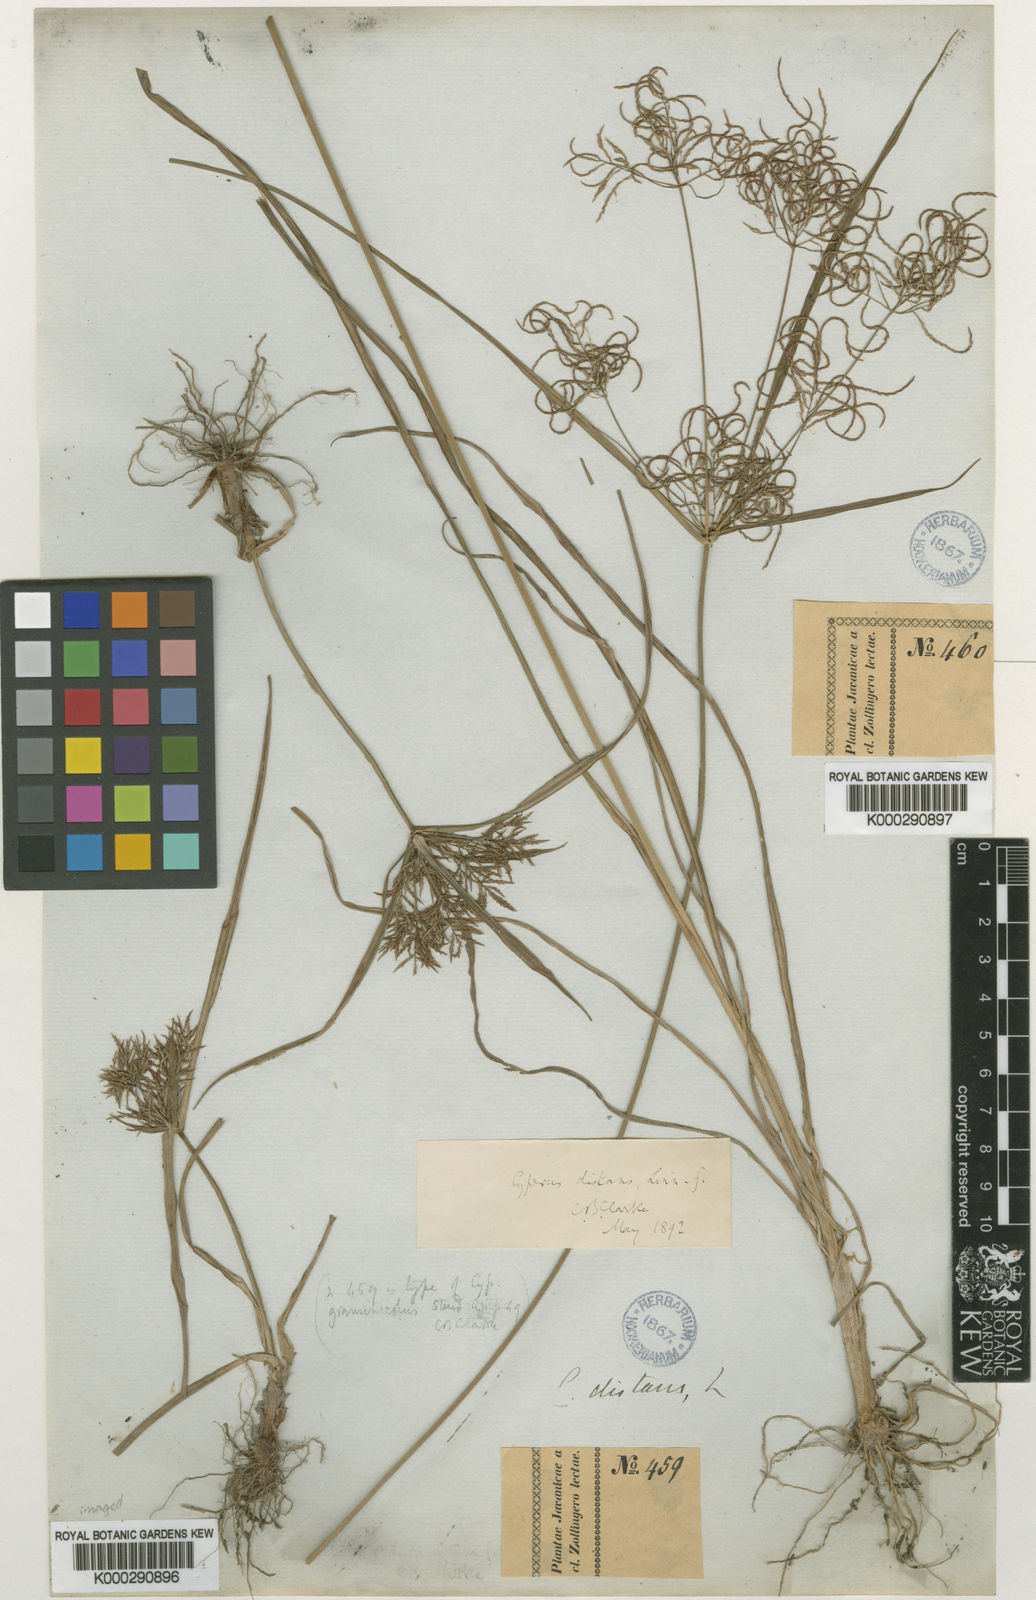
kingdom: Plantae
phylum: Tracheophyta
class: Liliopsida
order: Poales
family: Cyperaceae
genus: Cyperus
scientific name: Cyperus distans
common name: Slender cyperus
